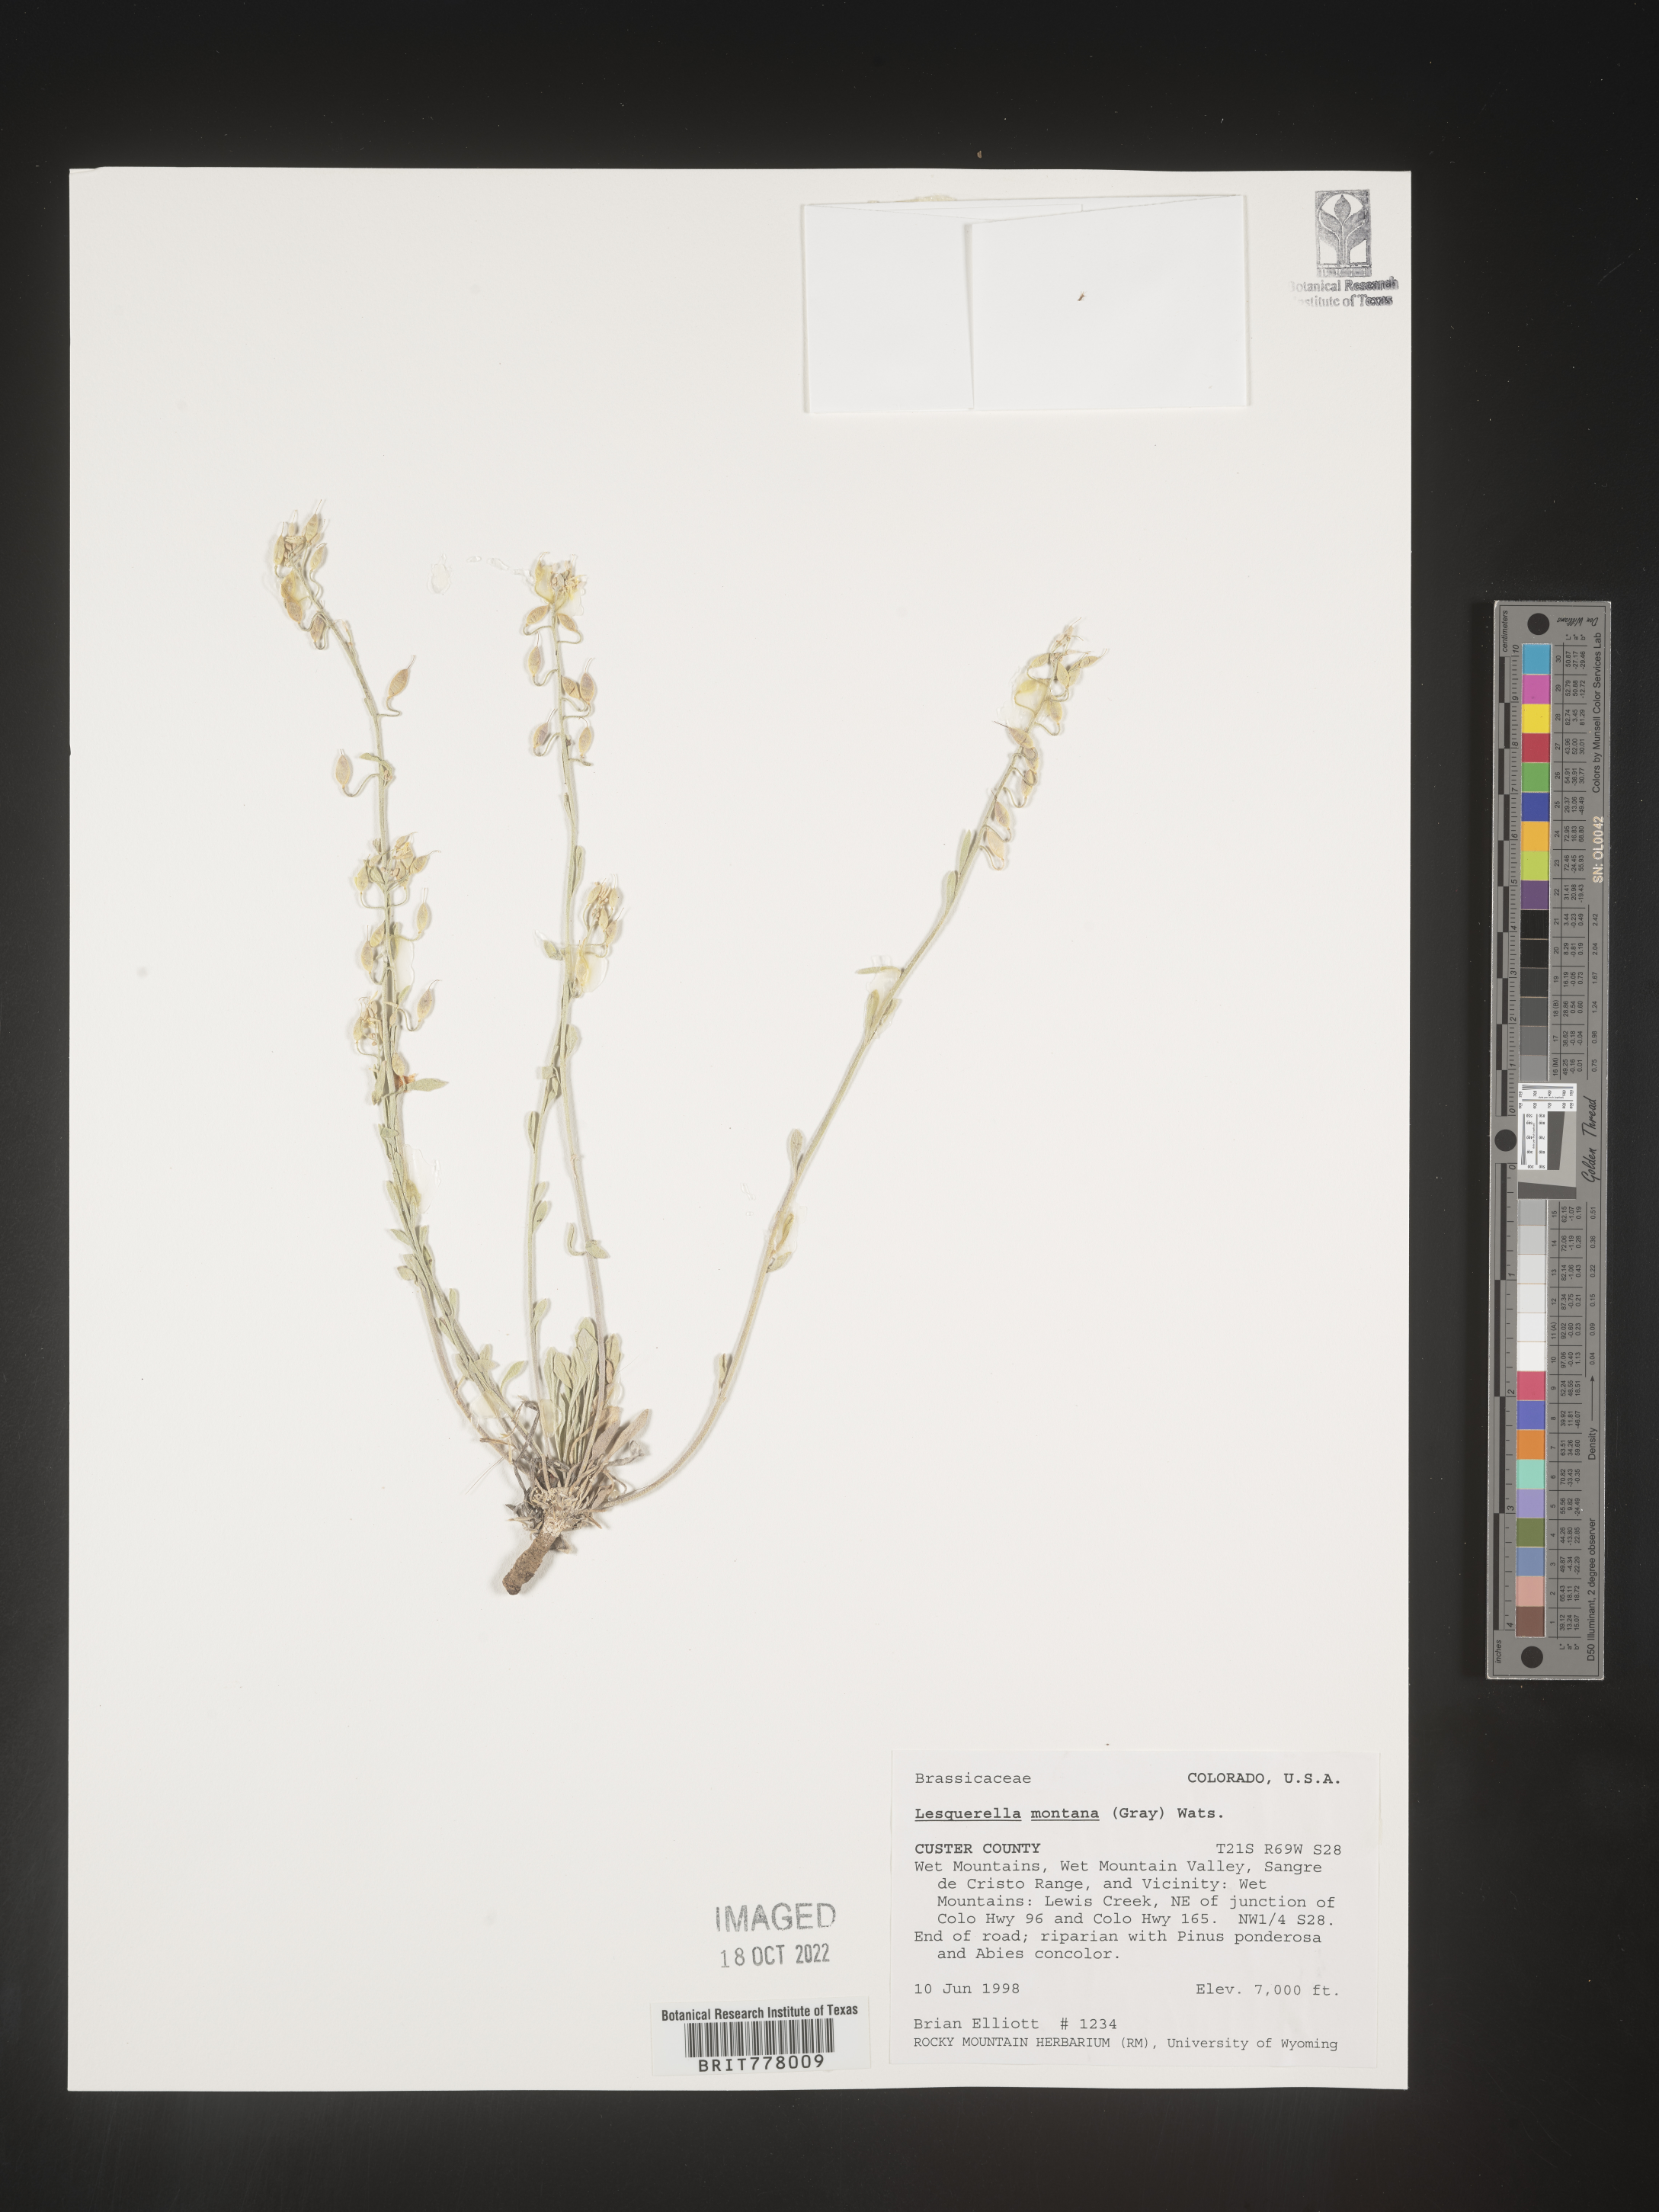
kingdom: Chromista
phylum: Cercozoa
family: Psammonobiotidae
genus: Lesquerella
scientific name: Lesquerella
